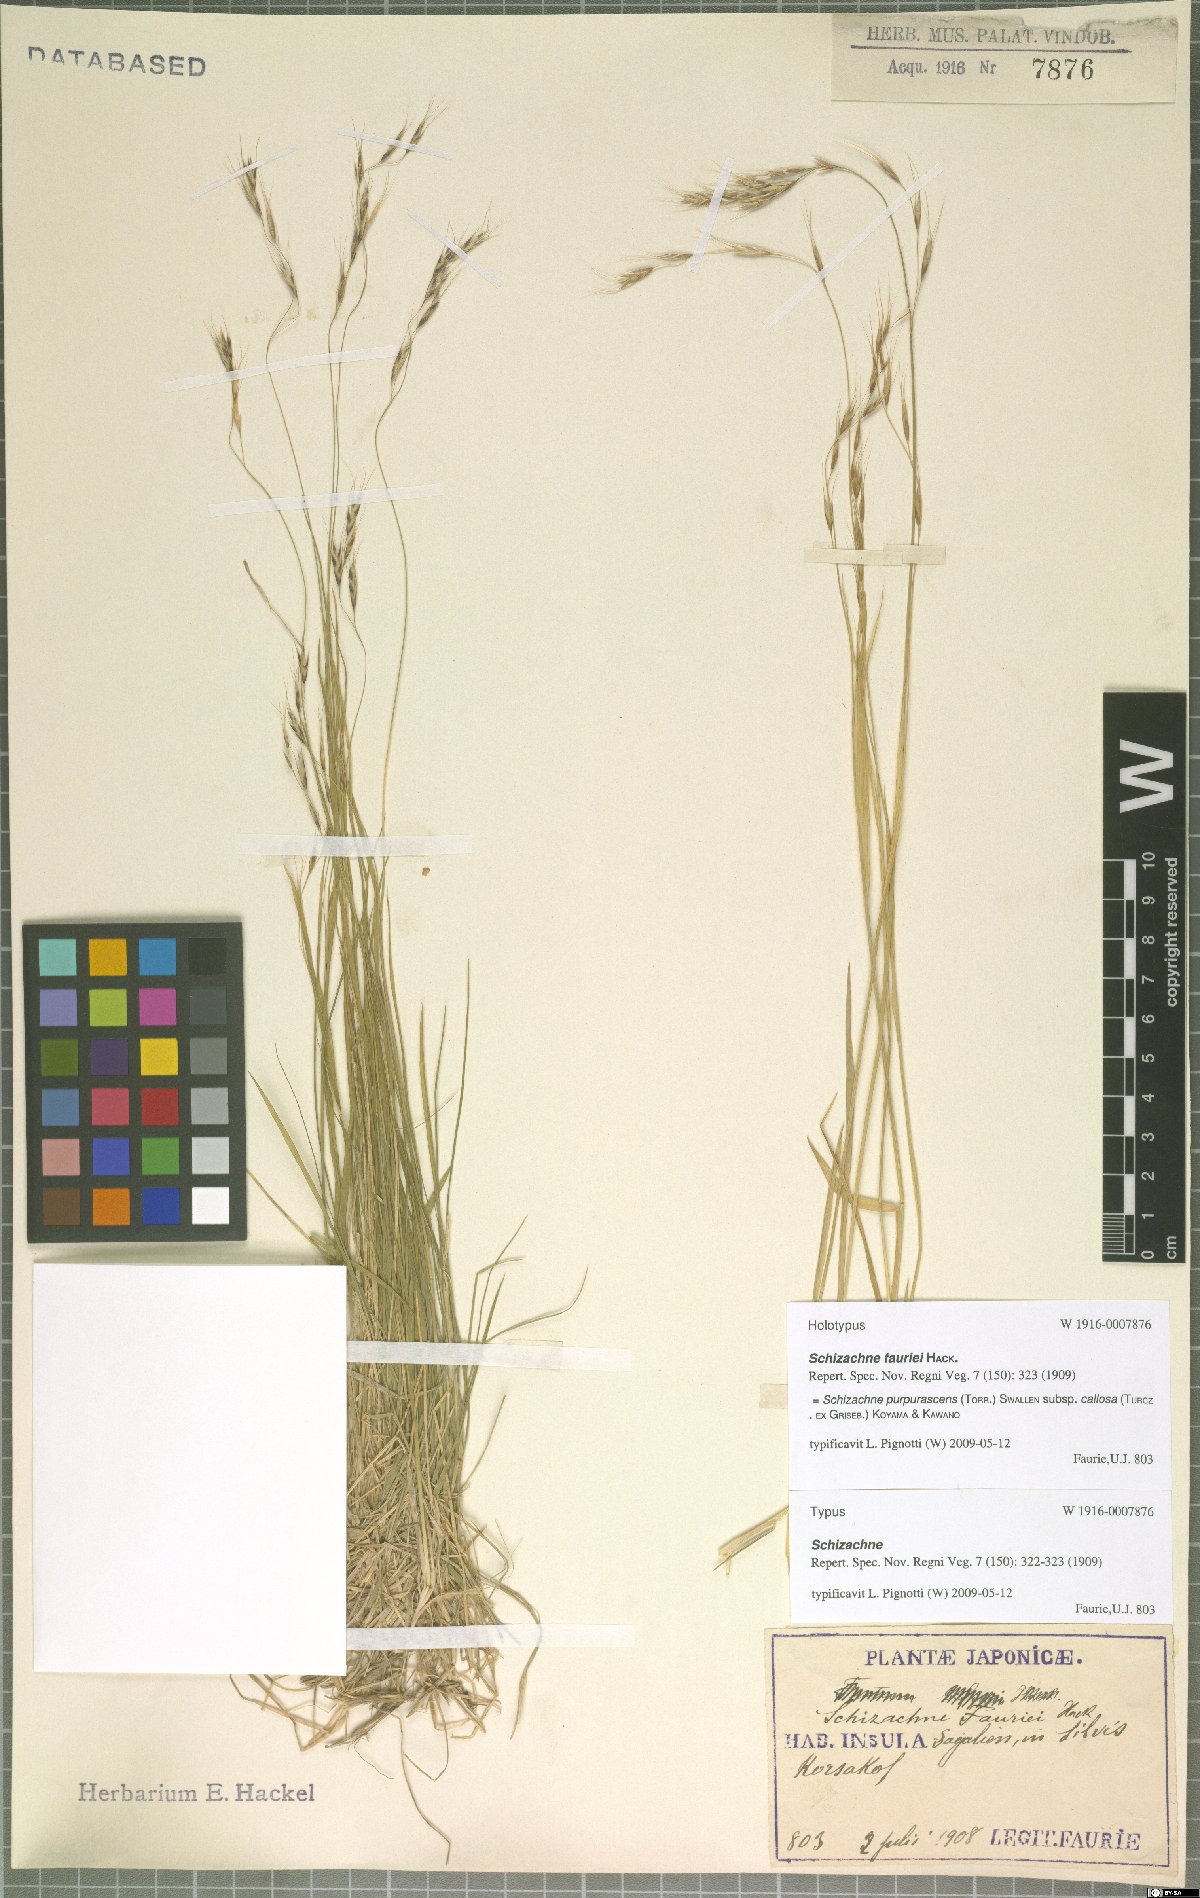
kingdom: Plantae
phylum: Tracheophyta
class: Liliopsida
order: Poales
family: Poaceae
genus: Schizachne
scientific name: Schizachne purpurascens
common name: False melic
